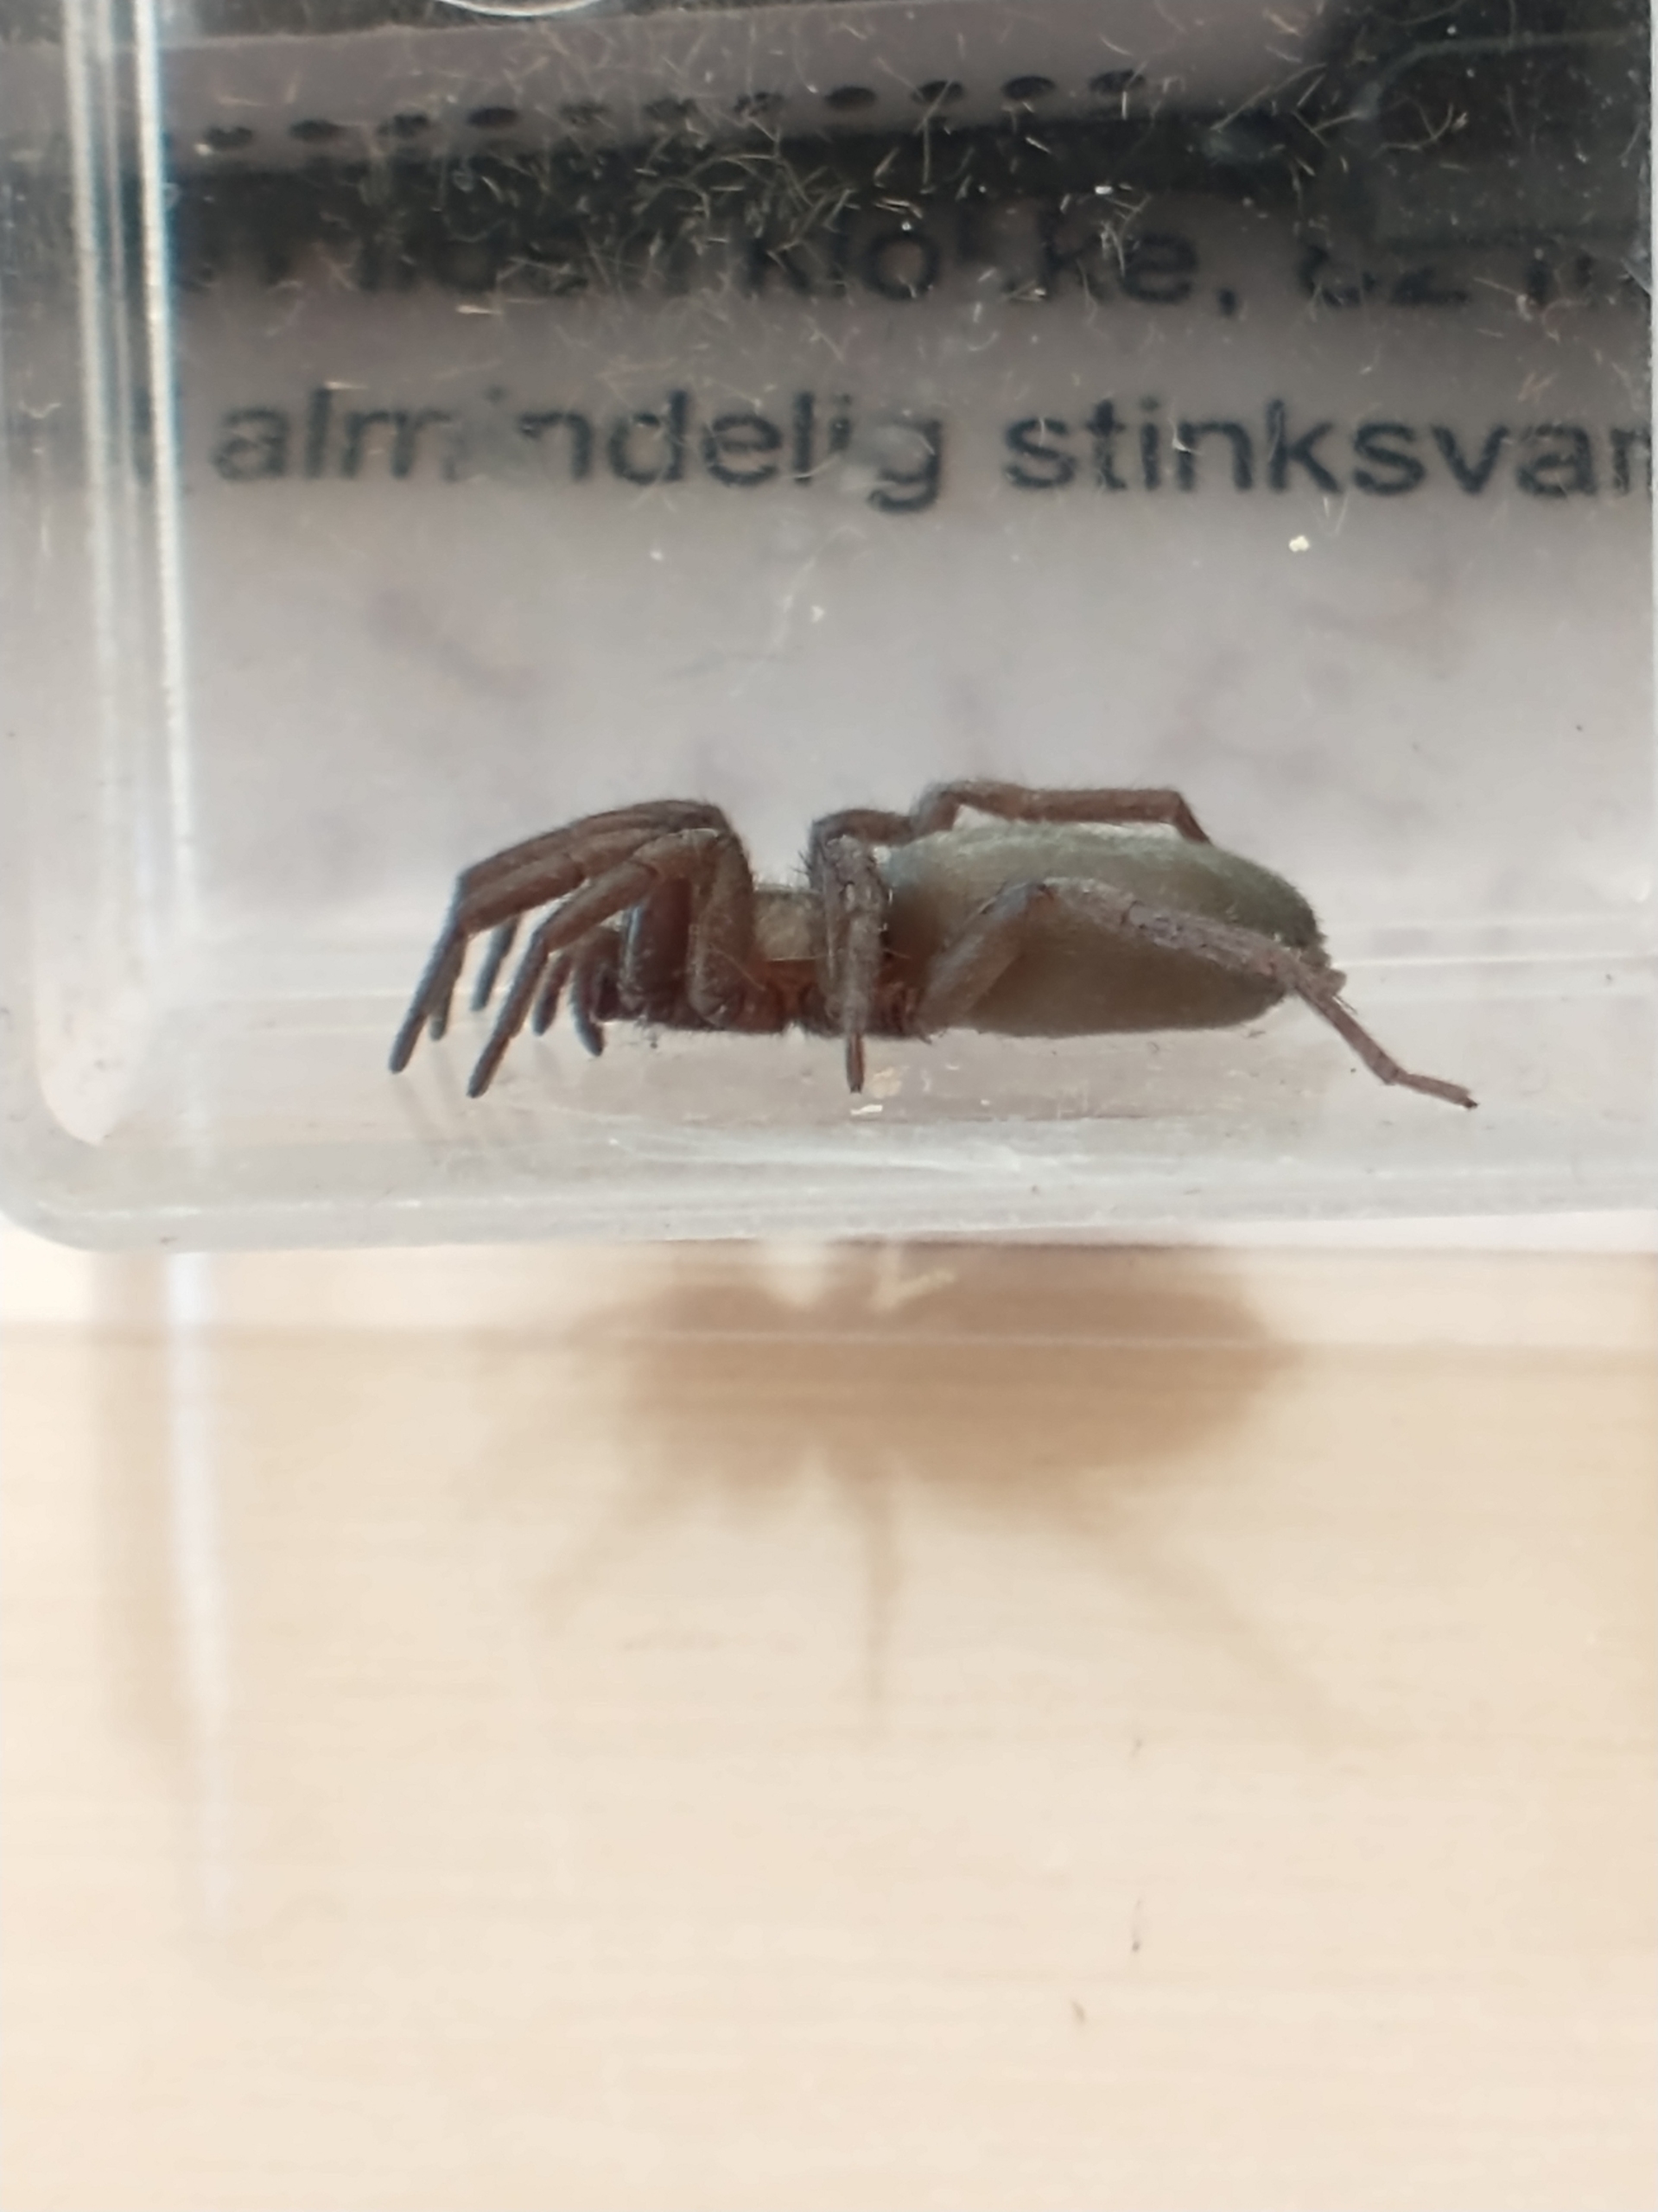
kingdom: Animalia
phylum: Arthropoda
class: Arachnida
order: Araneae
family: Gnaphosidae
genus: Scotophaeus
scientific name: Scotophaeus
